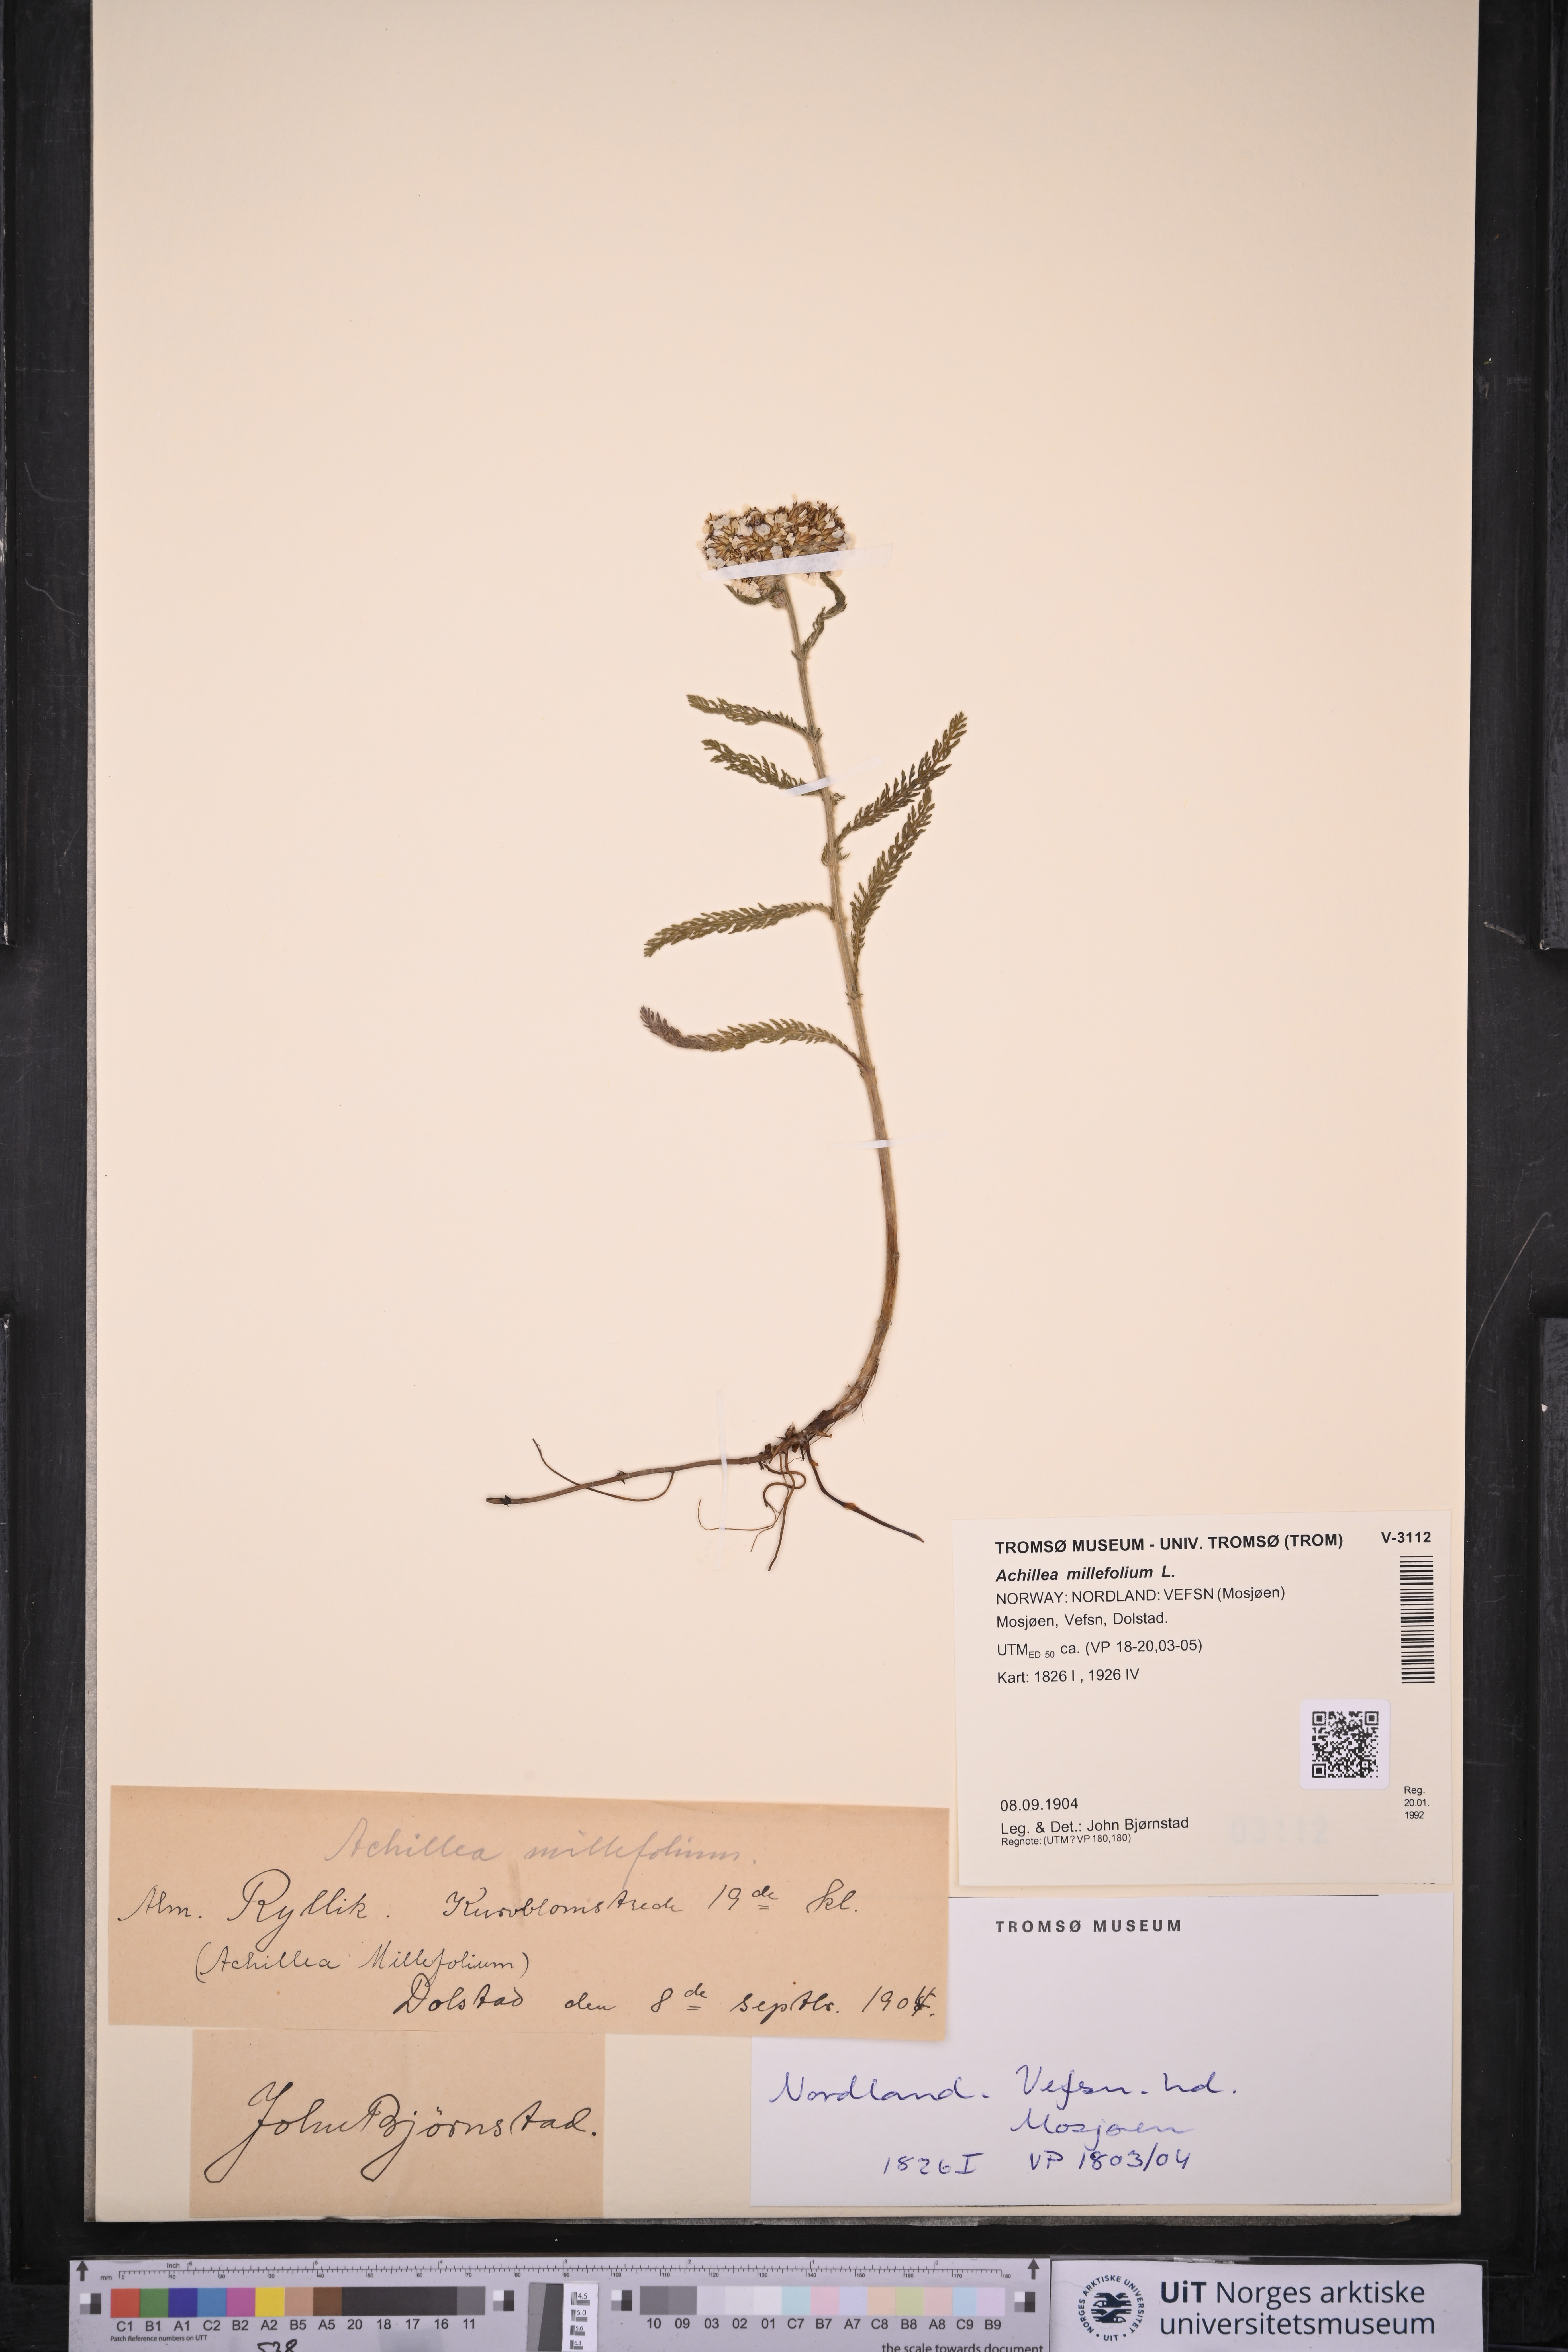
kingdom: Plantae
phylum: Tracheophyta
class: Magnoliopsida
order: Asterales
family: Asteraceae
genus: Achillea
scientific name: Achillea millefolium
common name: Yarrow
